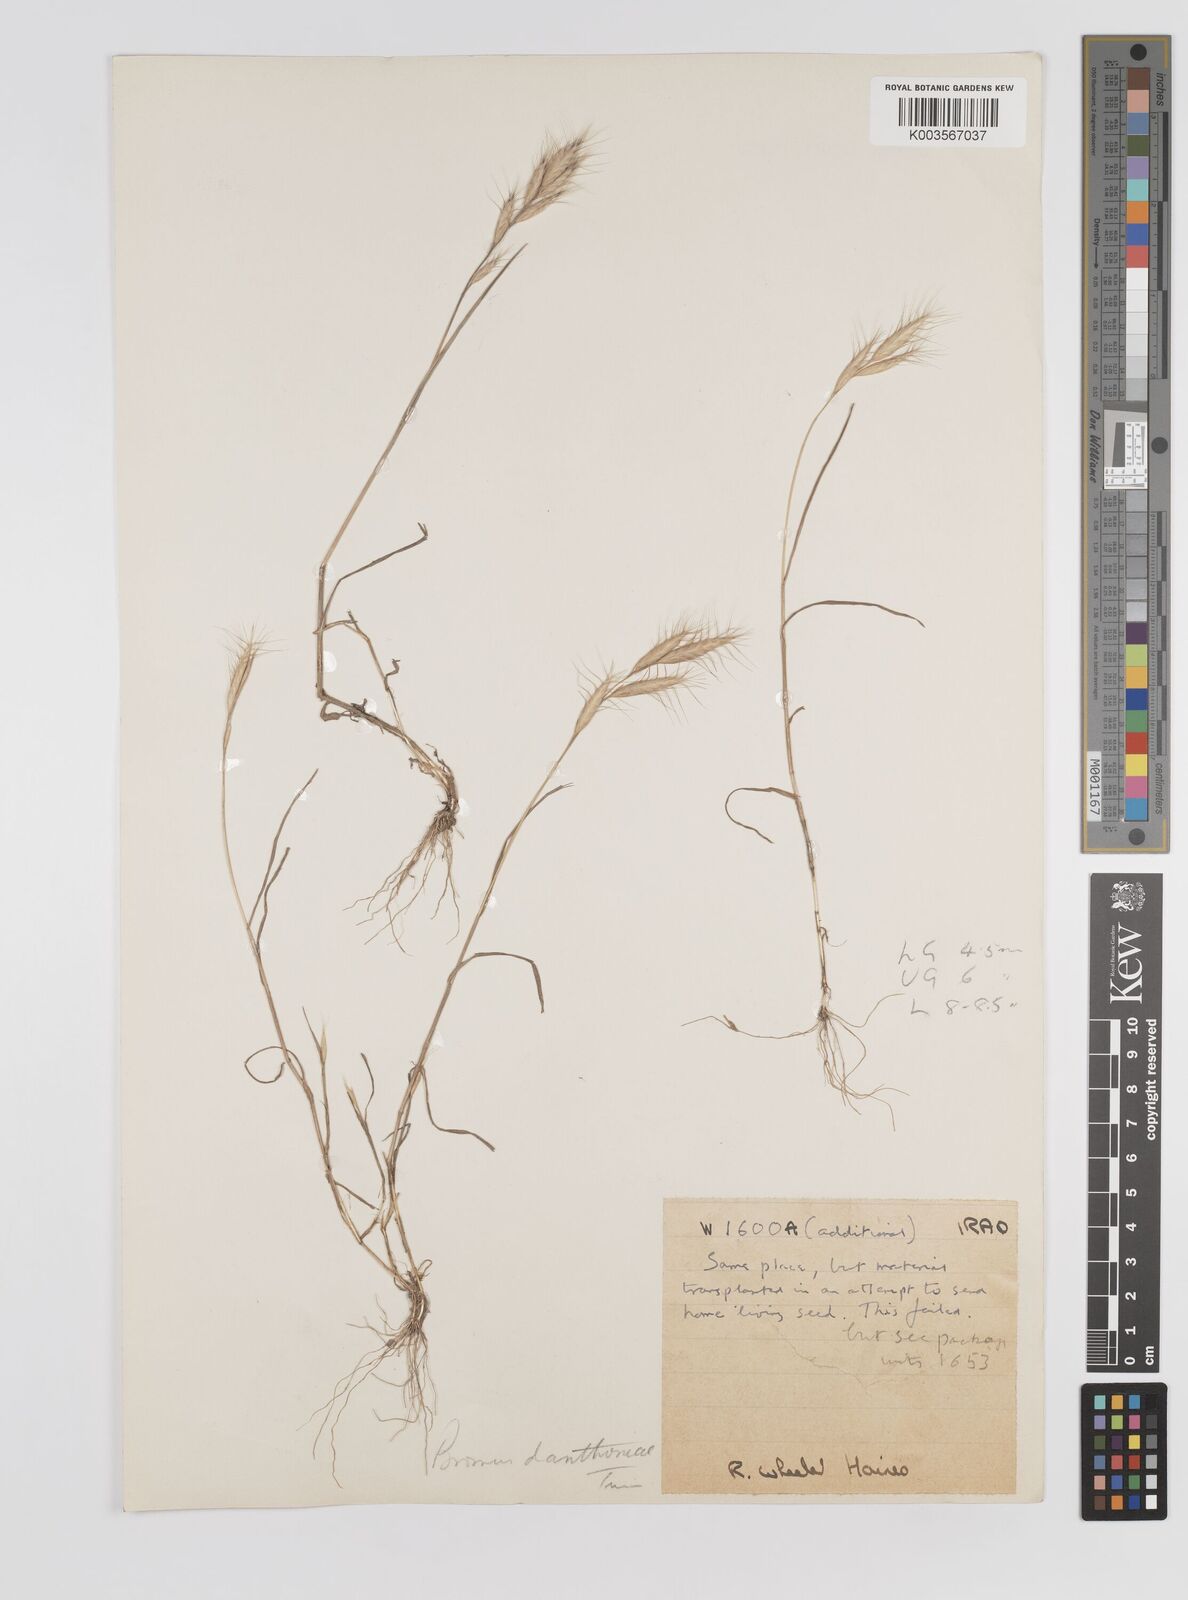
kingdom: Plantae
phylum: Tracheophyta
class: Liliopsida
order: Poales
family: Poaceae
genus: Bromus
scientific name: Bromus danthoniae
